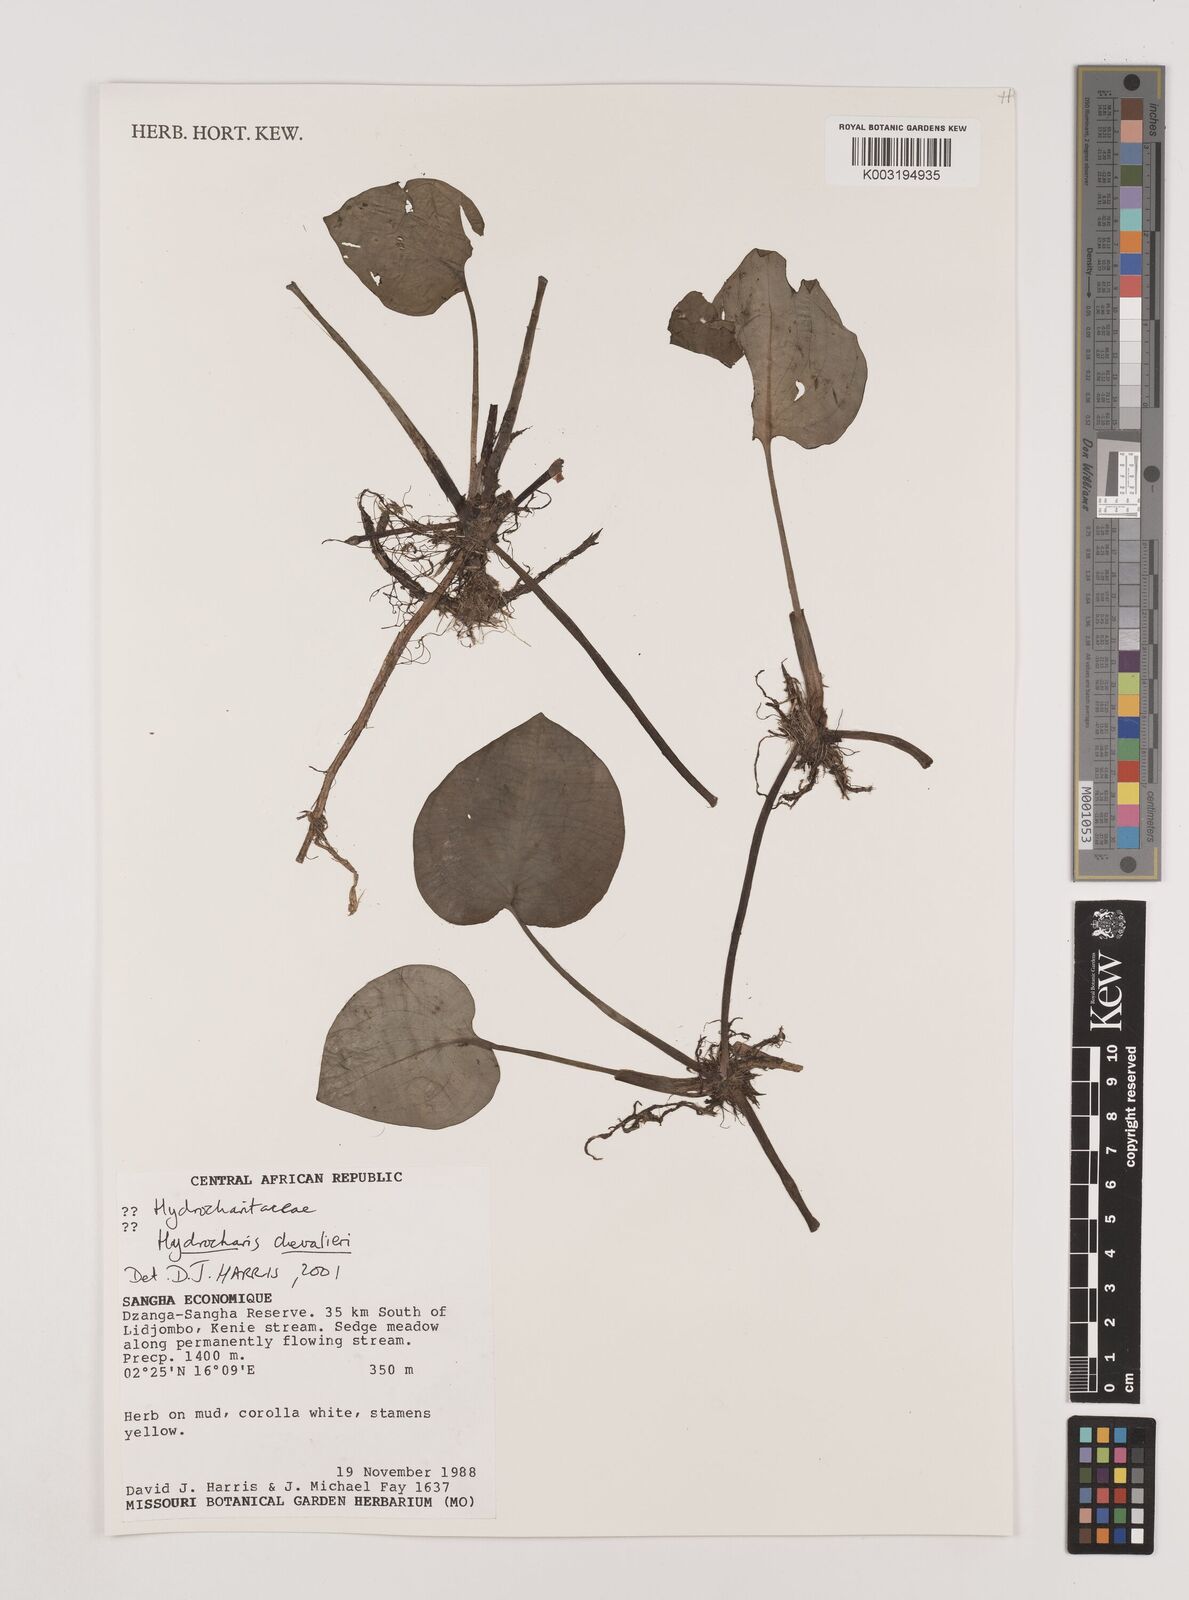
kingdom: Plantae
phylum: Tracheophyta
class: Liliopsida
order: Alismatales
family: Hydrocharitaceae
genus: Hydrocharis
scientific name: Hydrocharis chevalieri
